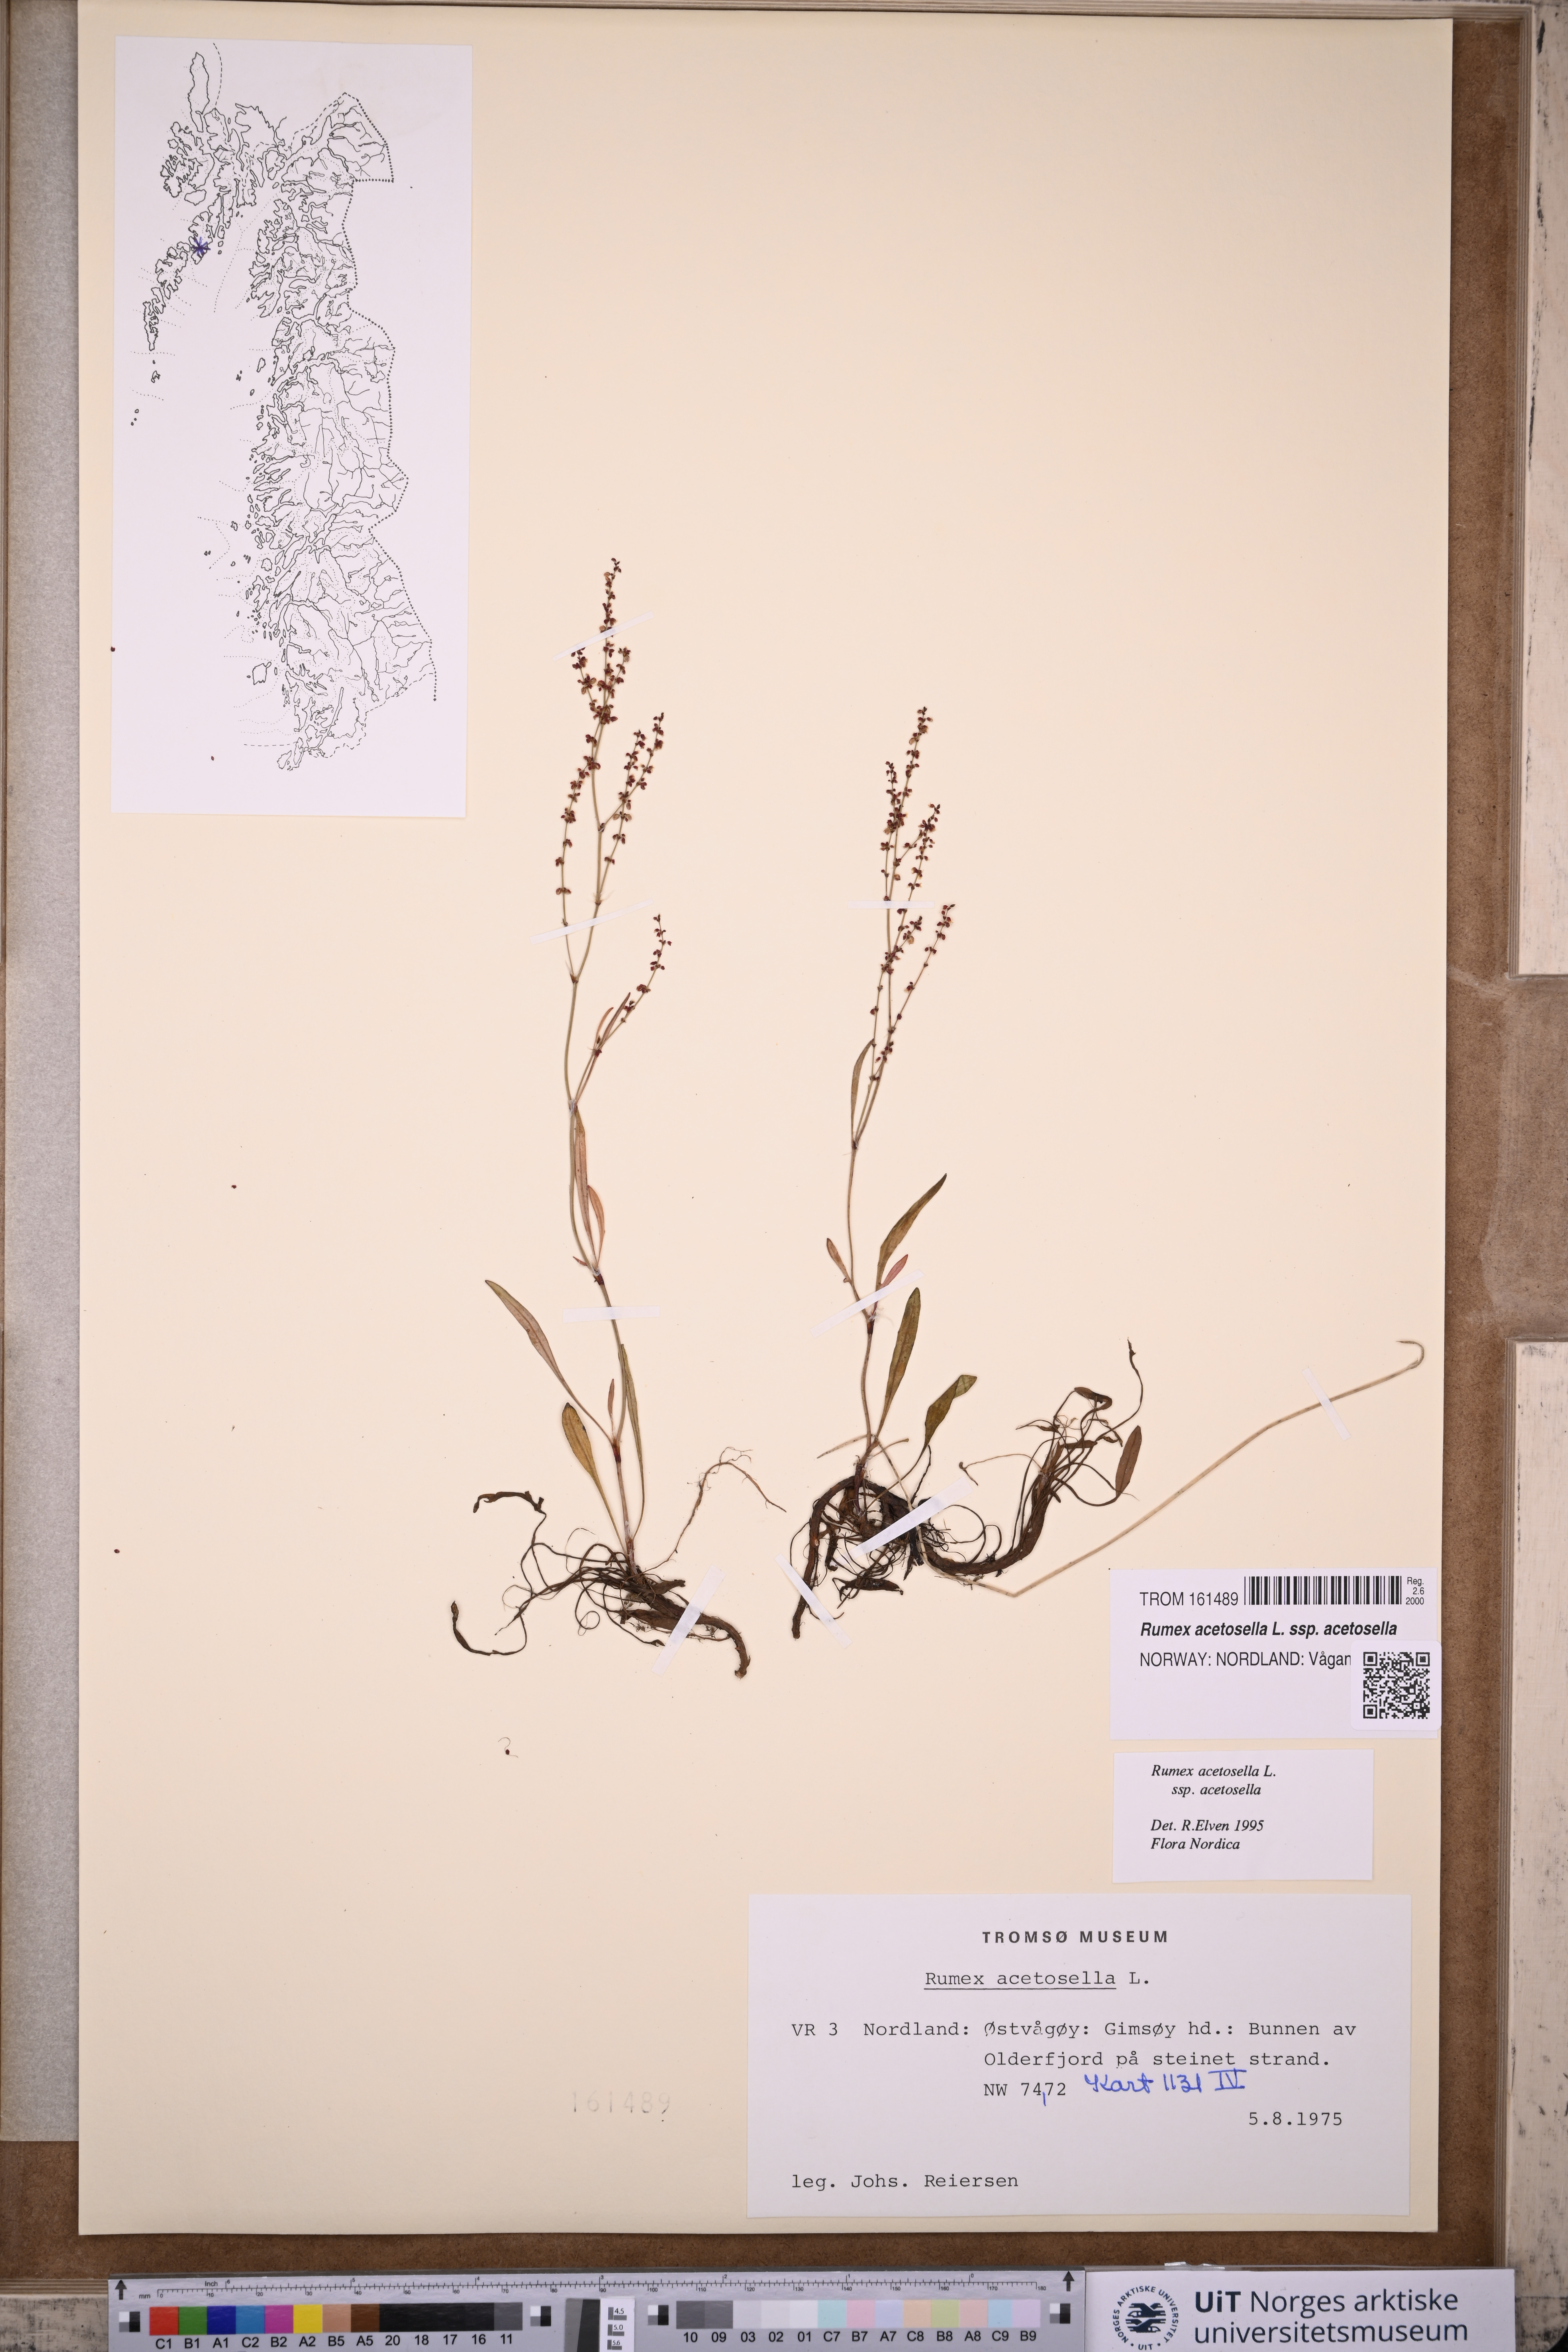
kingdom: Plantae
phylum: Tracheophyta
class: Magnoliopsida
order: Caryophyllales
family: Polygonaceae
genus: Rumex
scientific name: Rumex acetosella
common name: Common sheep sorrel
